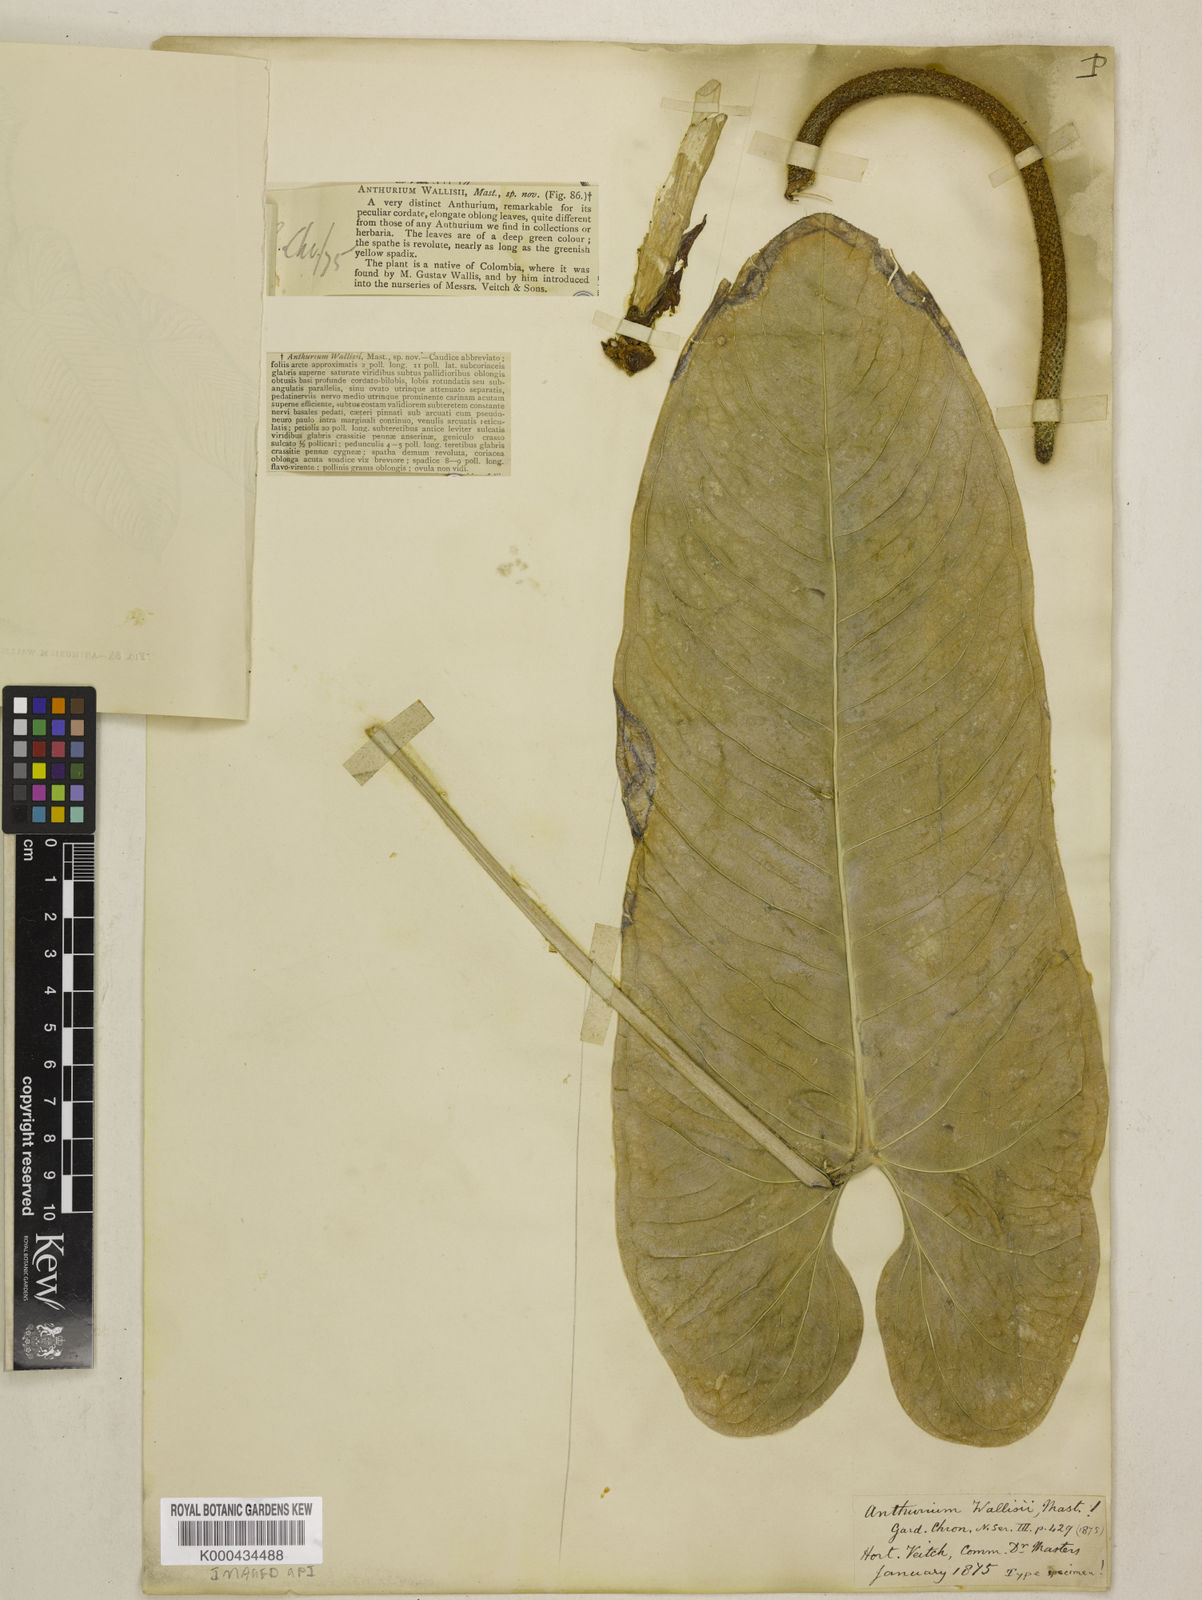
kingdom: Plantae
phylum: Tracheophyta
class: Liliopsida
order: Alismatales
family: Araceae
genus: Anthurium
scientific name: Anthurium wallisii
